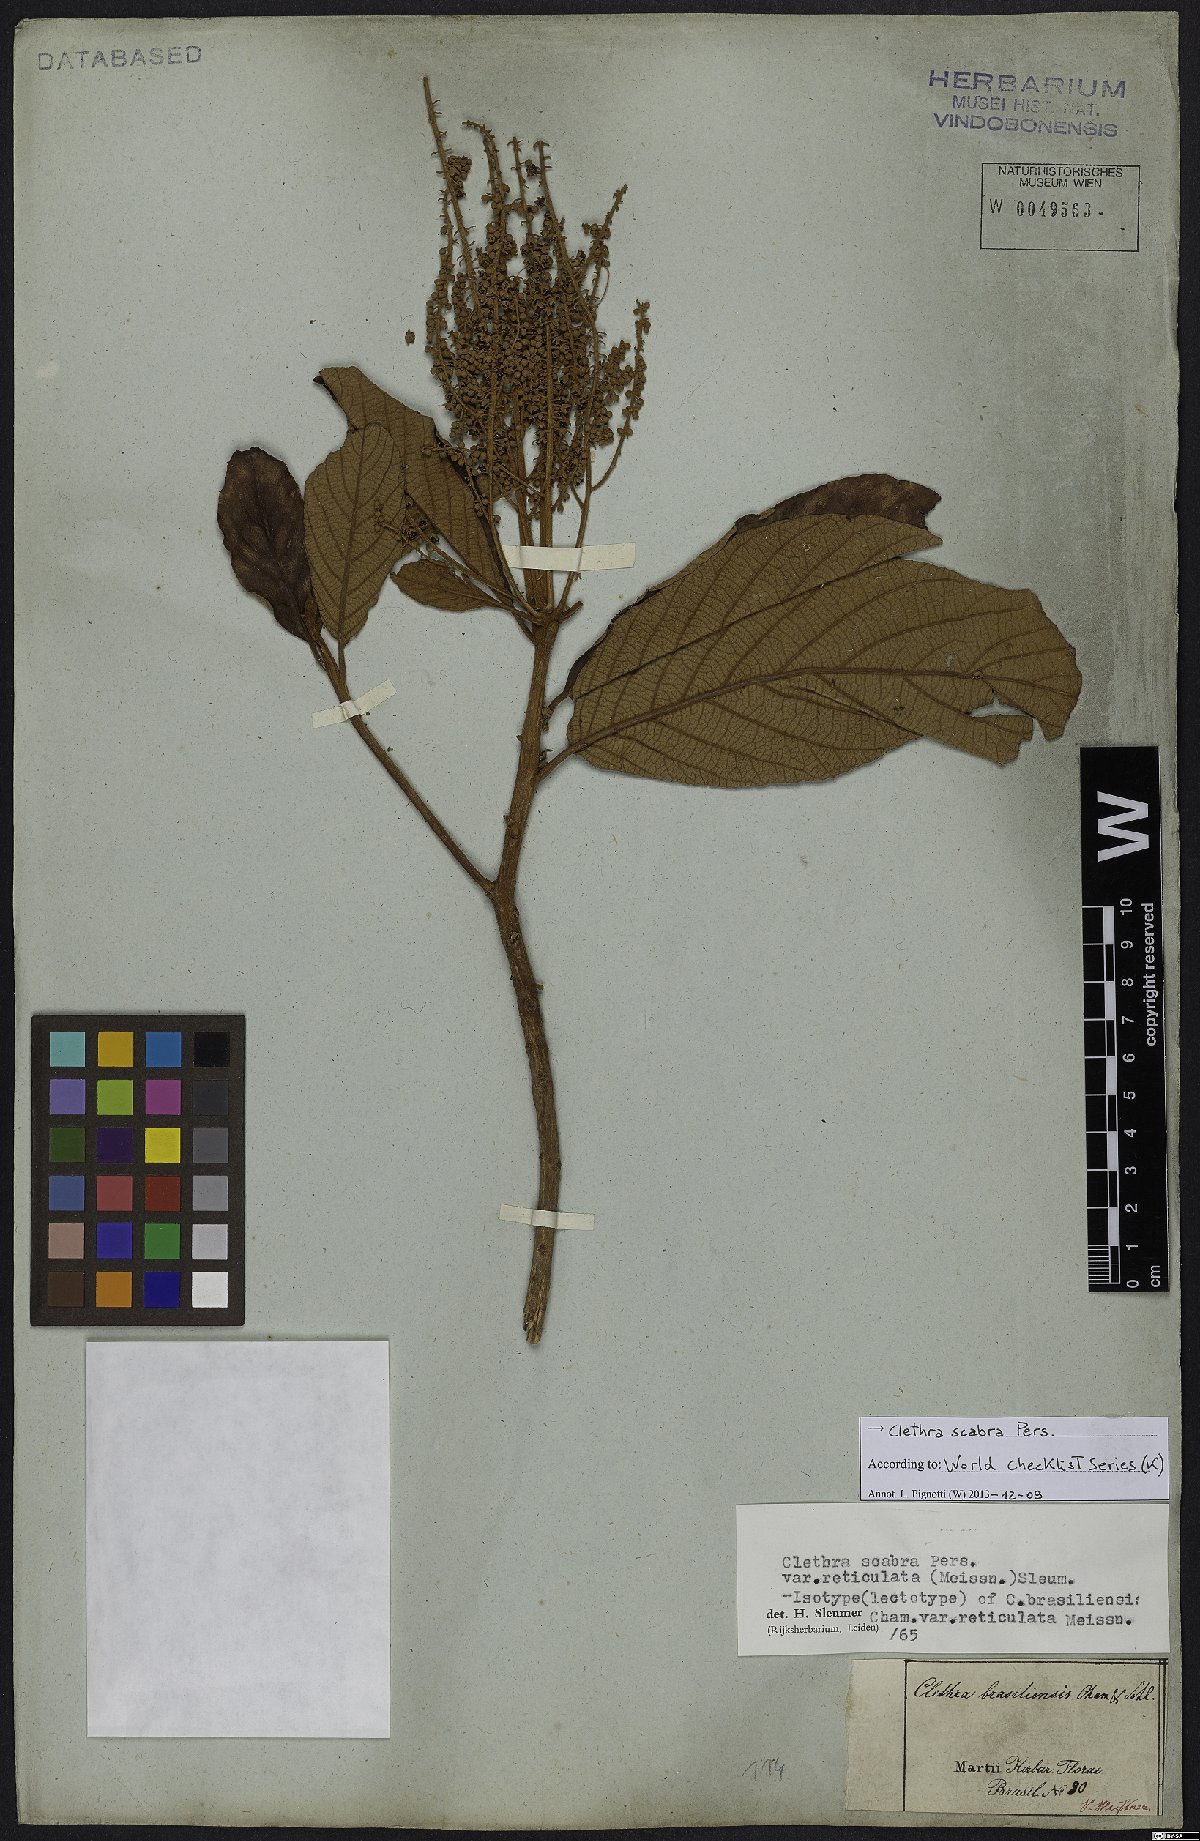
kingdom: Plantae
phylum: Tracheophyta
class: Magnoliopsida
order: Ericales
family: Clethraceae
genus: Clethra
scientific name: Clethra scabra
